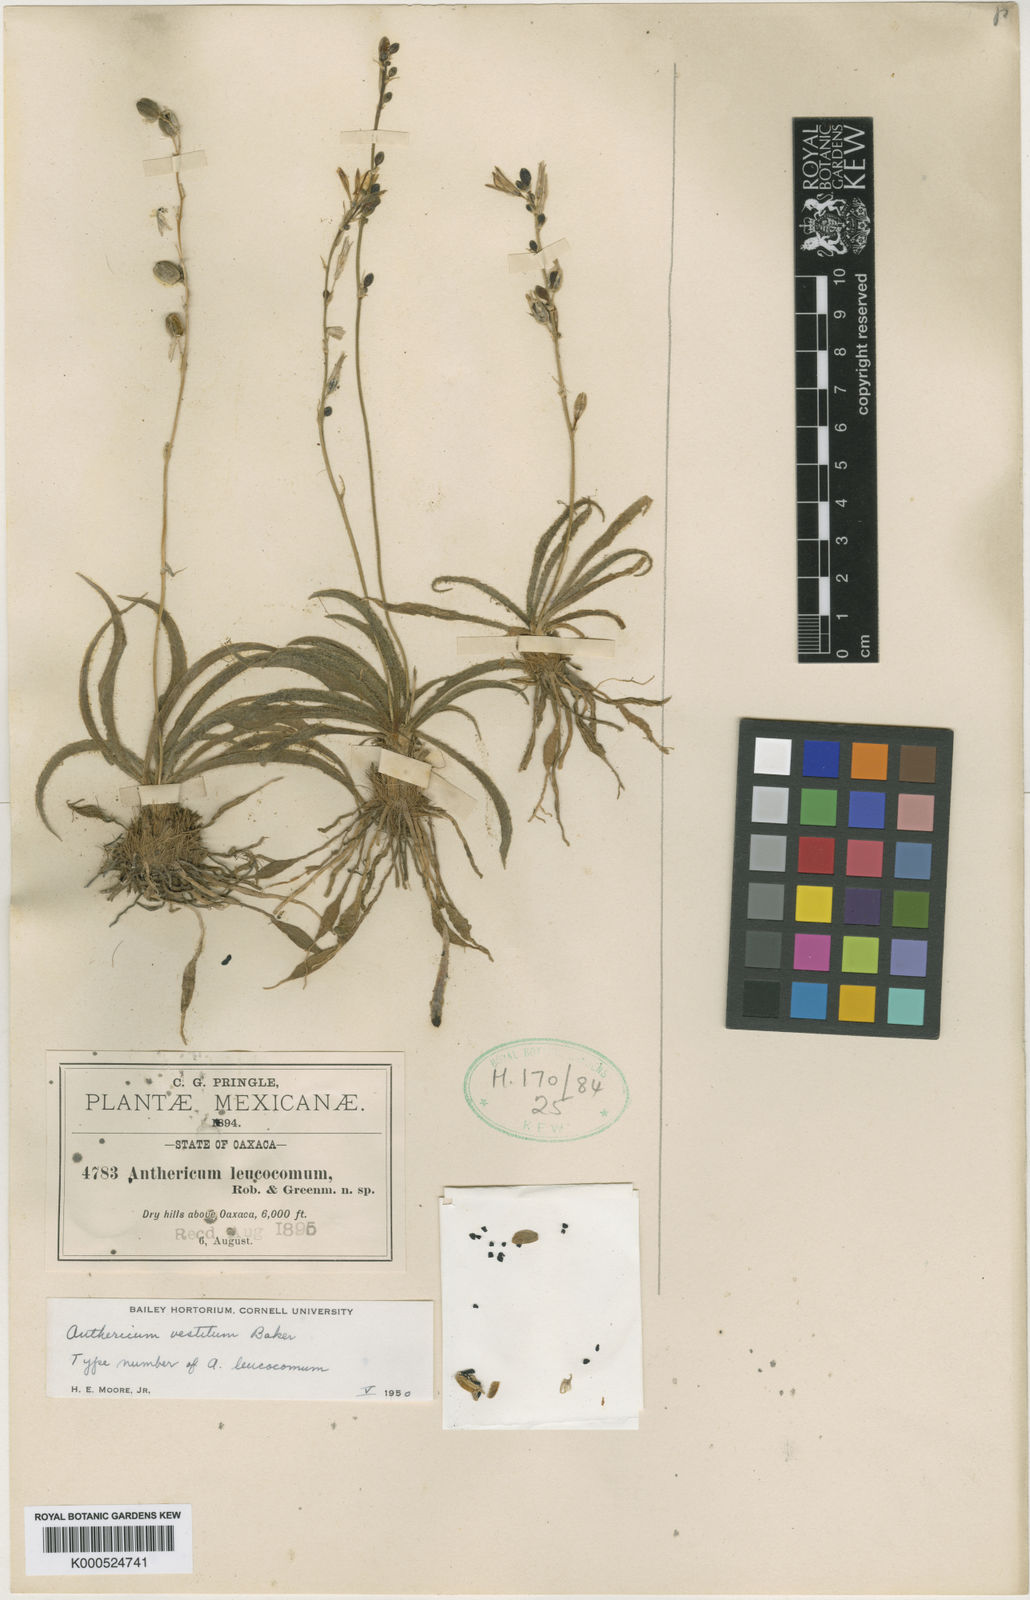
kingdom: Plantae
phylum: Tracheophyta
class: Liliopsida
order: Asparagales
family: Asparagaceae
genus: Echeandia
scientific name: Echeandia vestita
